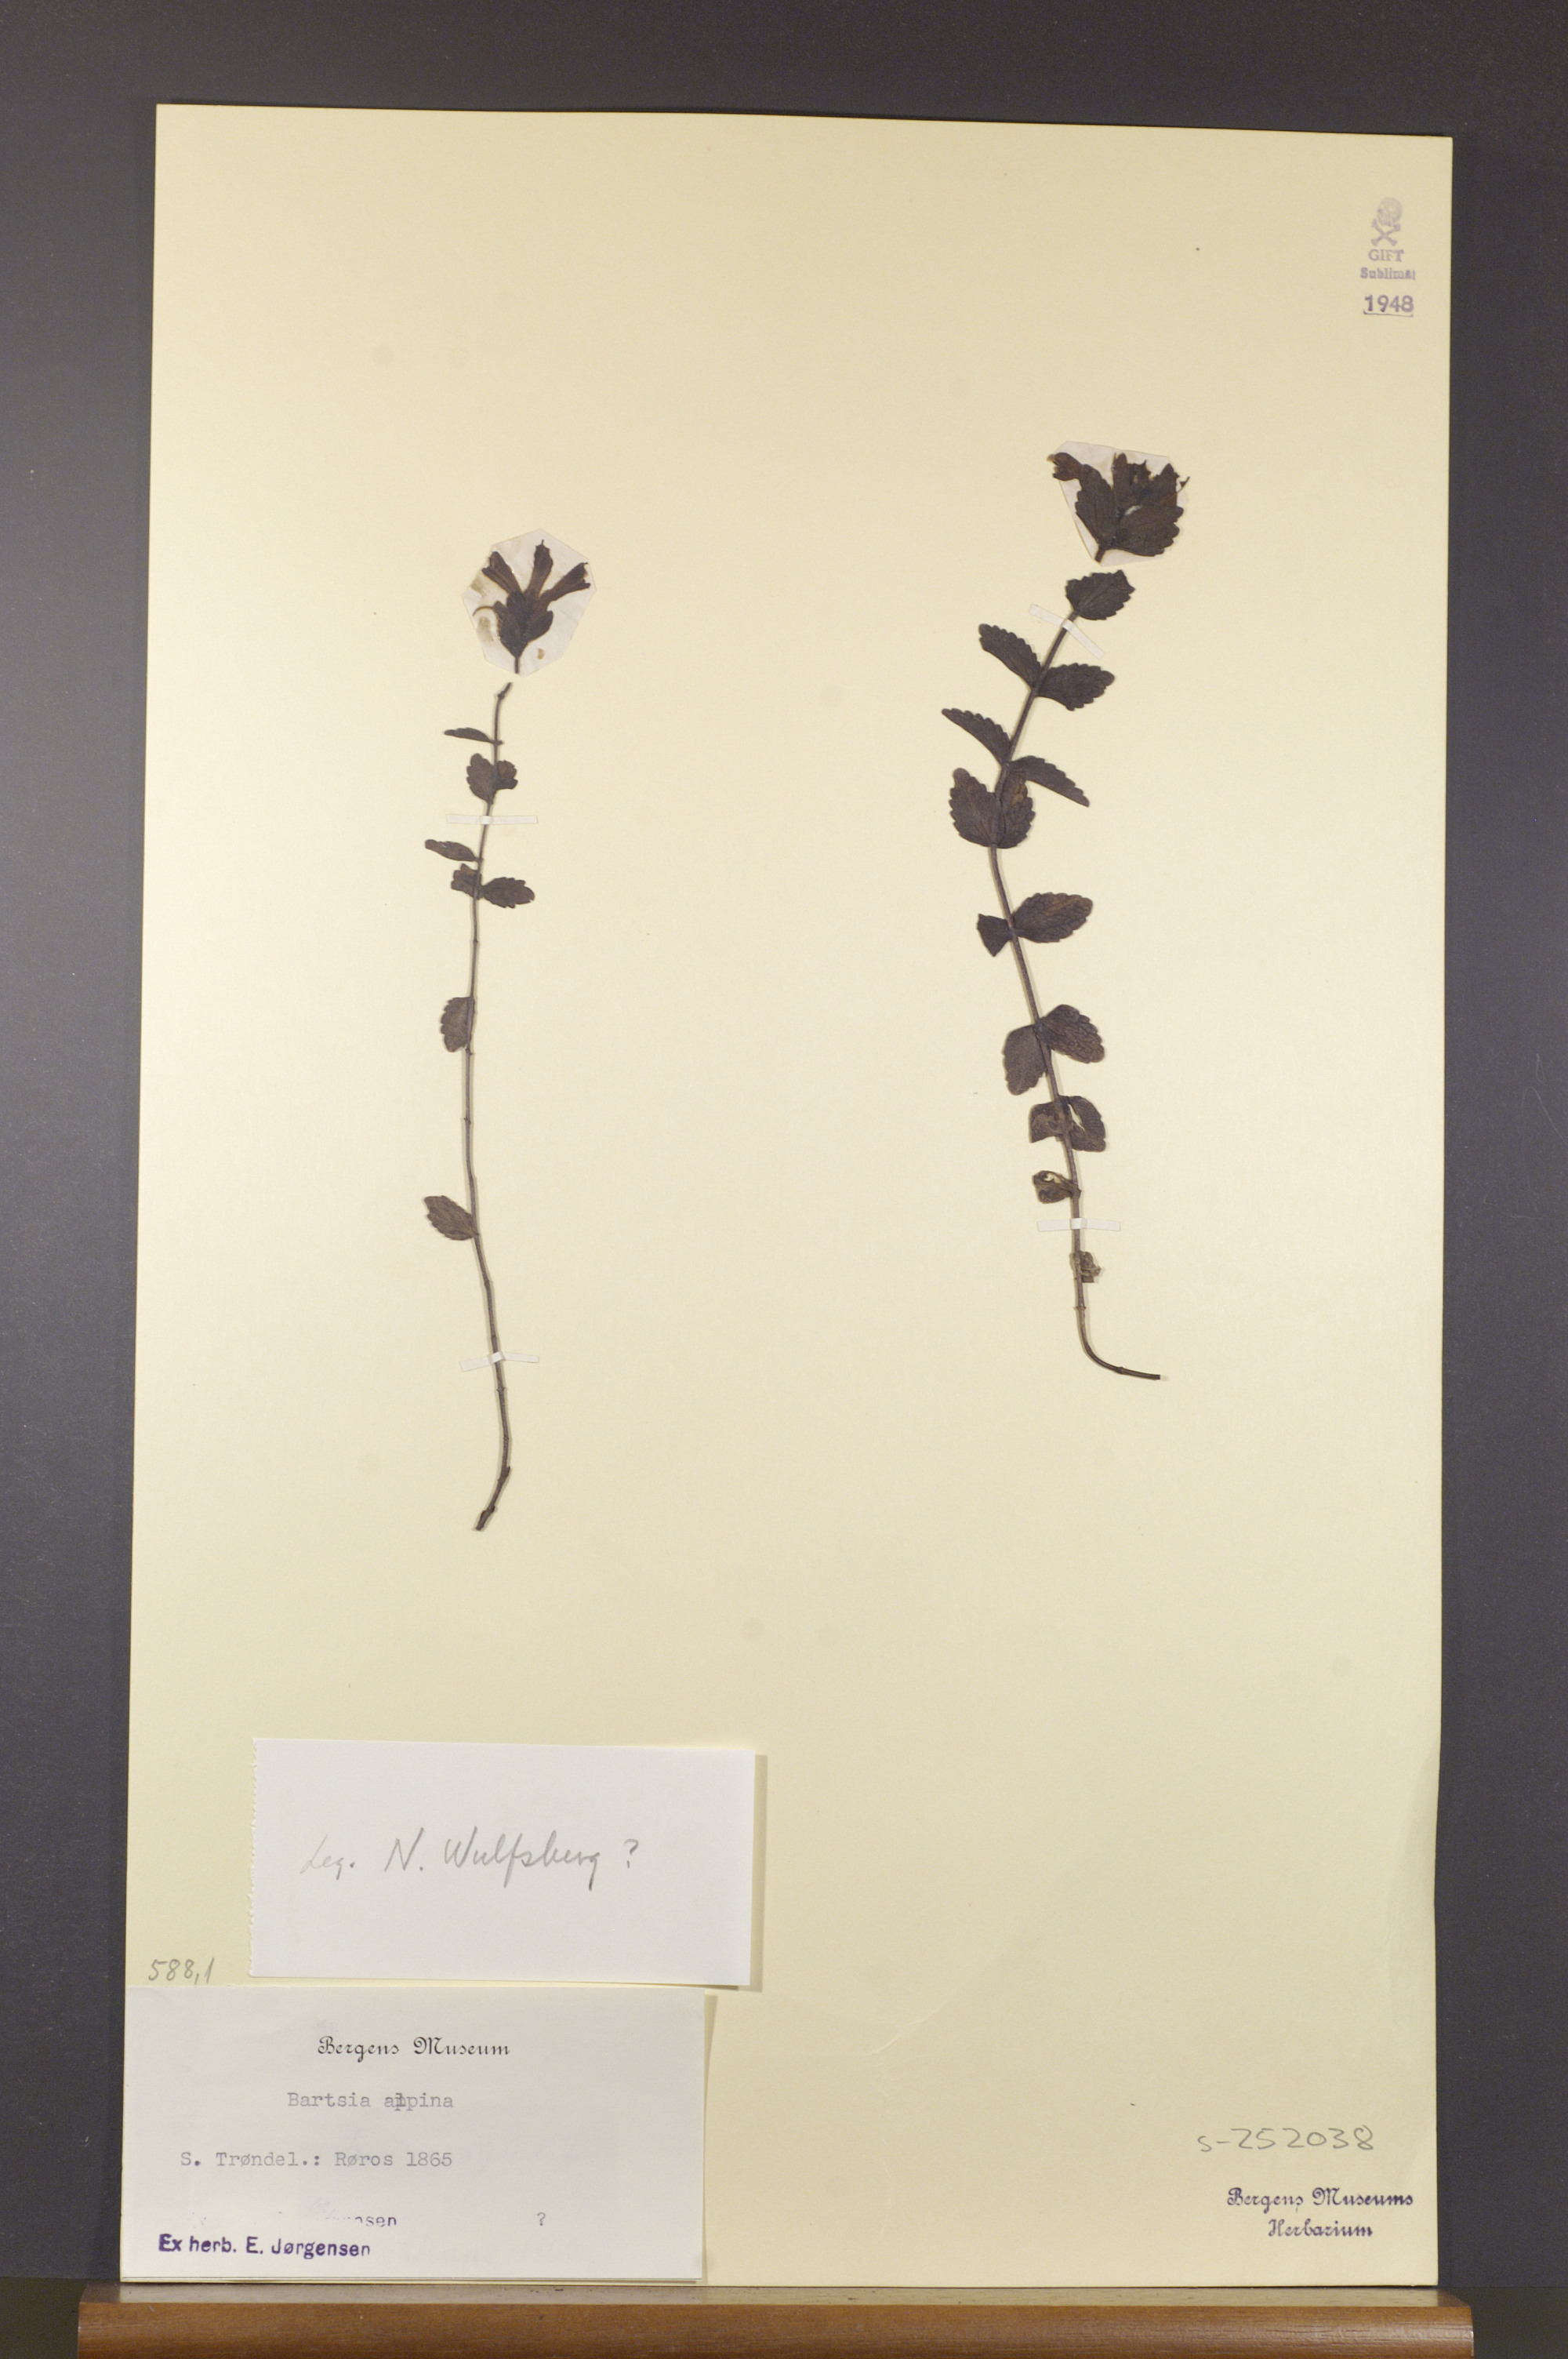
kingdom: Plantae
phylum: Tracheophyta
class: Magnoliopsida
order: Lamiales
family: Orobanchaceae
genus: Bartsia
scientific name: Bartsia alpina
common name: Alpine bartsia
